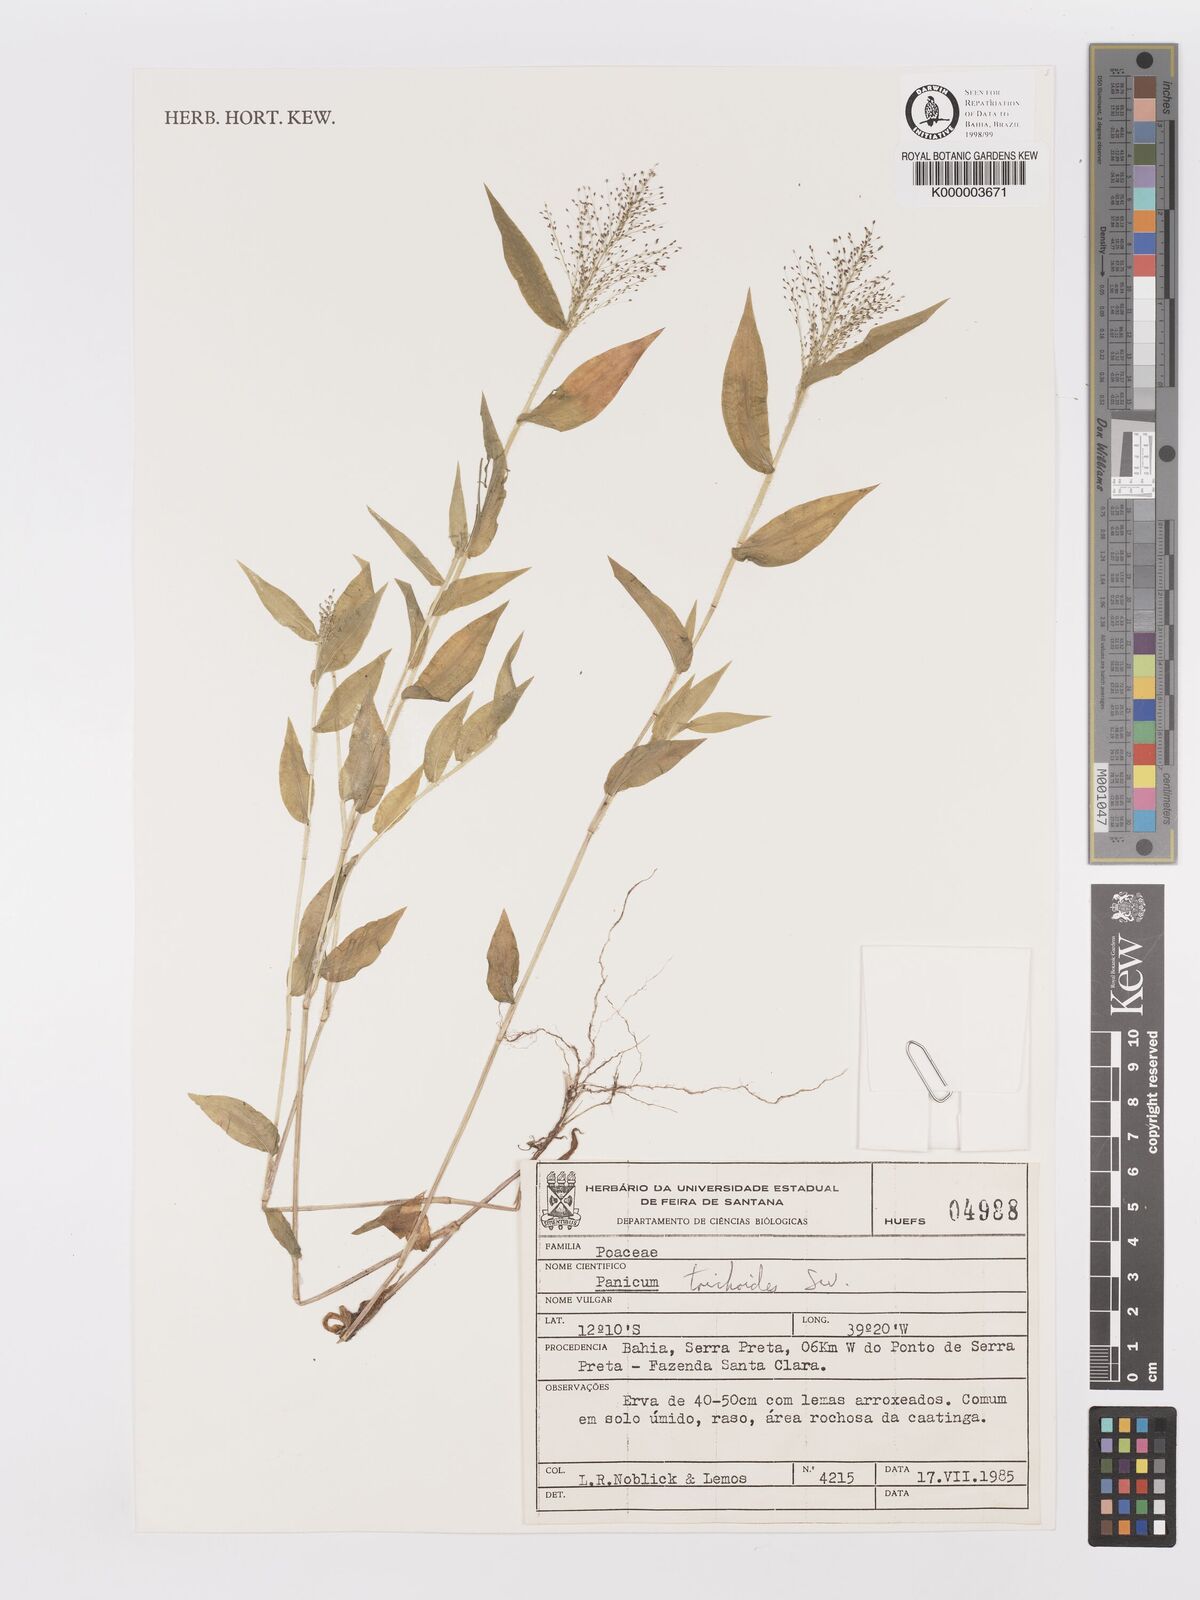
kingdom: Plantae
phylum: Tracheophyta
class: Liliopsida
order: Poales
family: Poaceae
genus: Panicum
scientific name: Panicum
